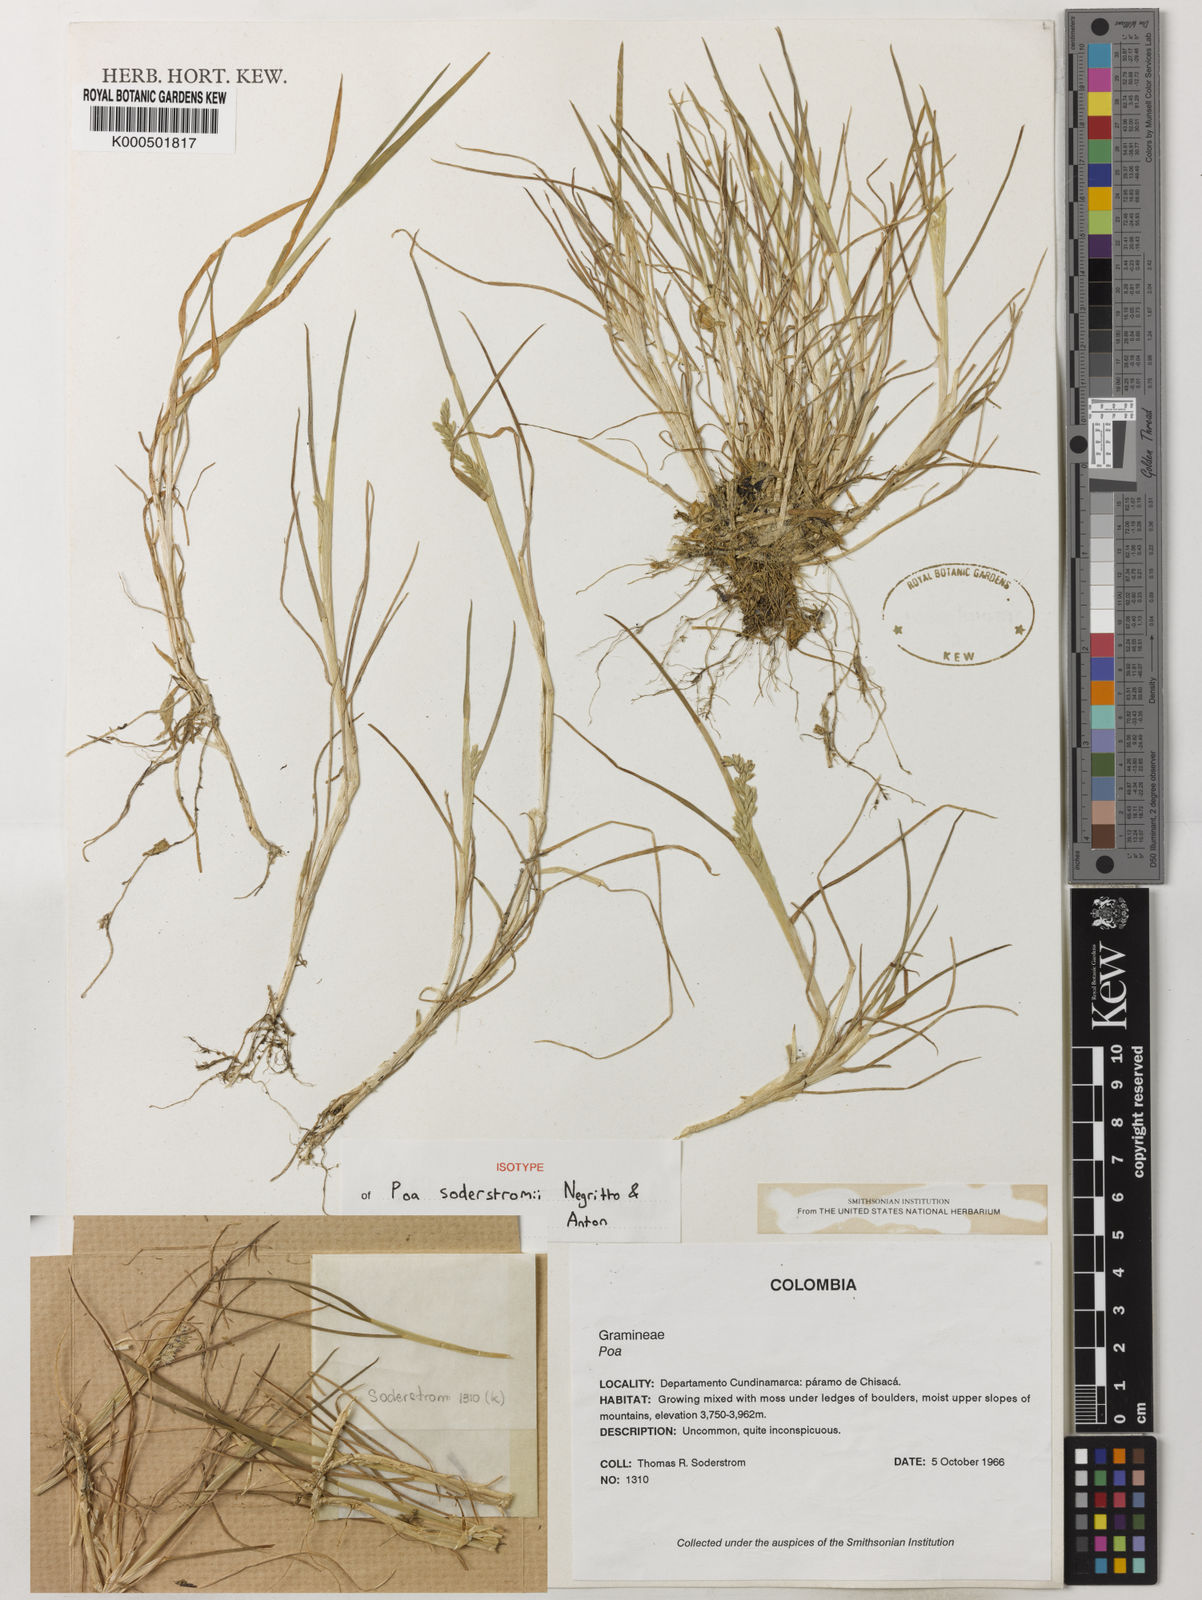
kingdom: Plantae
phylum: Tracheophyta
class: Liliopsida
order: Poales
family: Poaceae
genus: Poa
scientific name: Poa orthophylla
